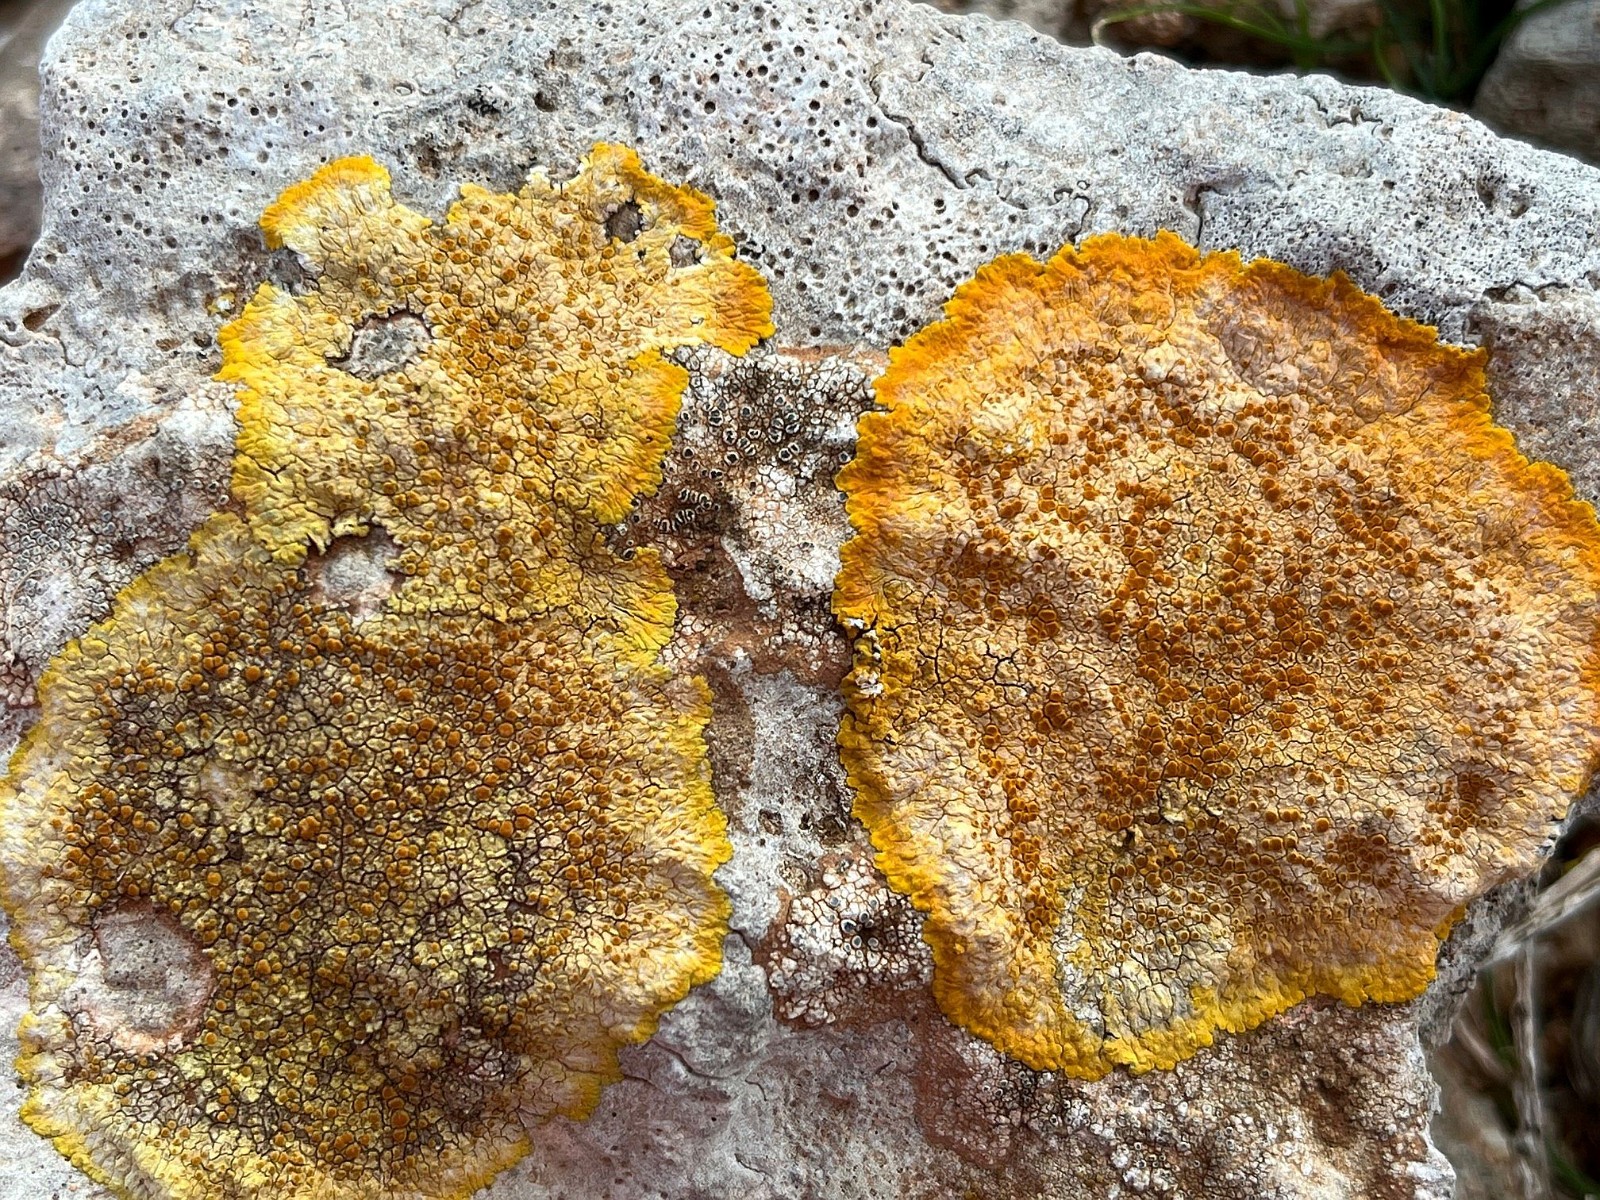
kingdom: Fungi
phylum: Ascomycota
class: Lecanoromycetes
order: Teloschistales
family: Teloschistaceae
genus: Variospora
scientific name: Variospora aurantia
